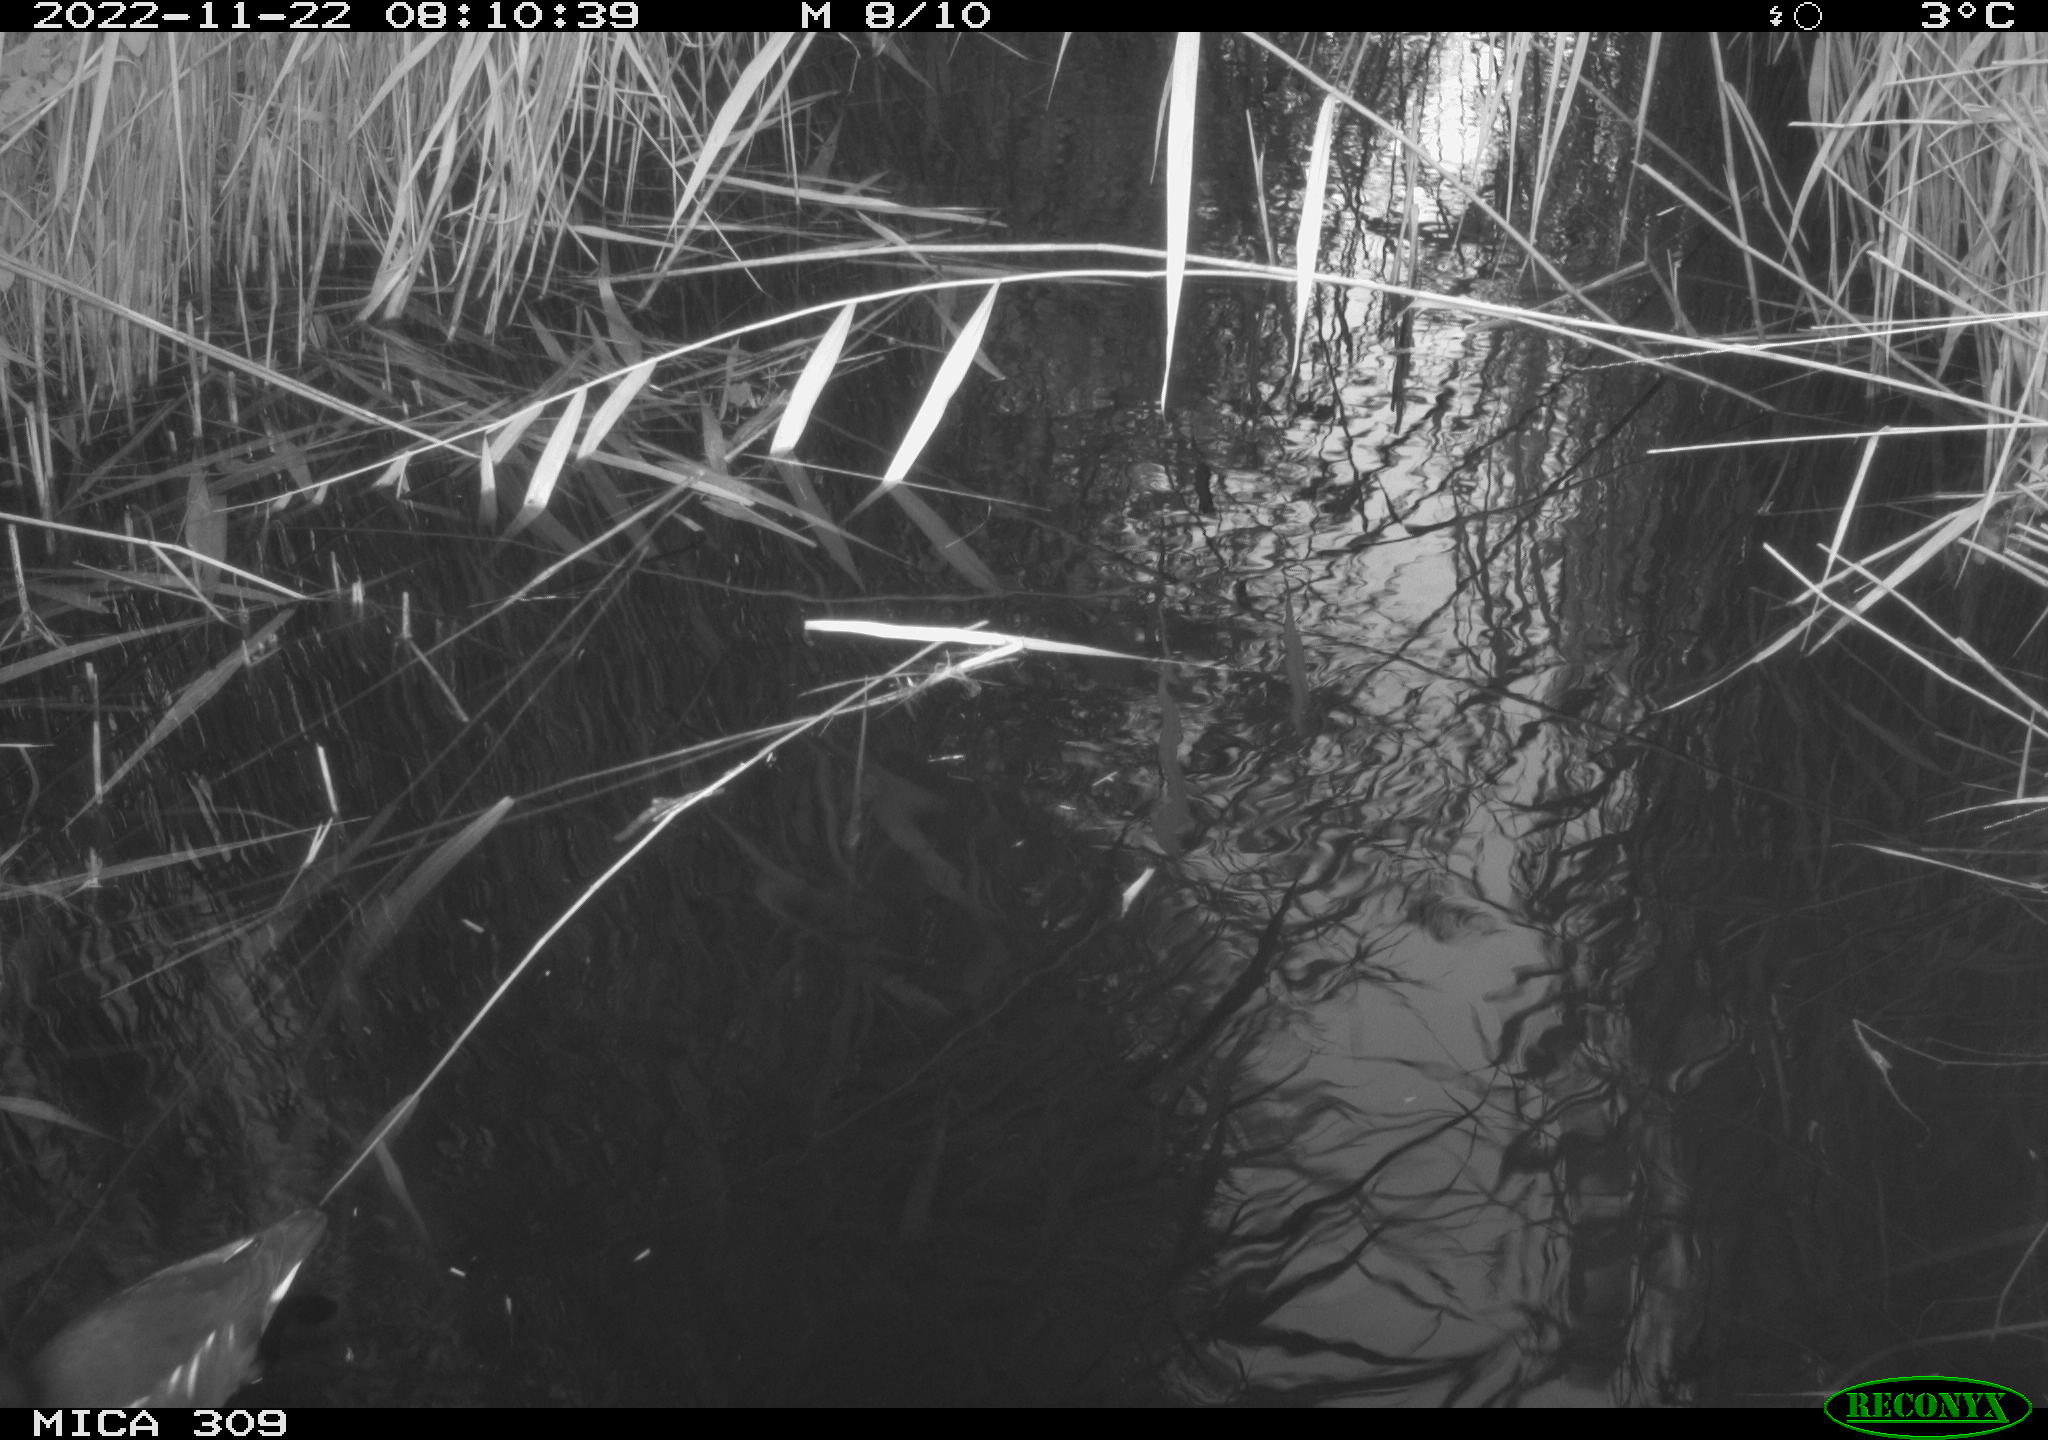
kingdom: Animalia
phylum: Chordata
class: Aves
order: Gruiformes
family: Rallidae
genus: Gallinula
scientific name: Gallinula chloropus
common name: Common moorhen
